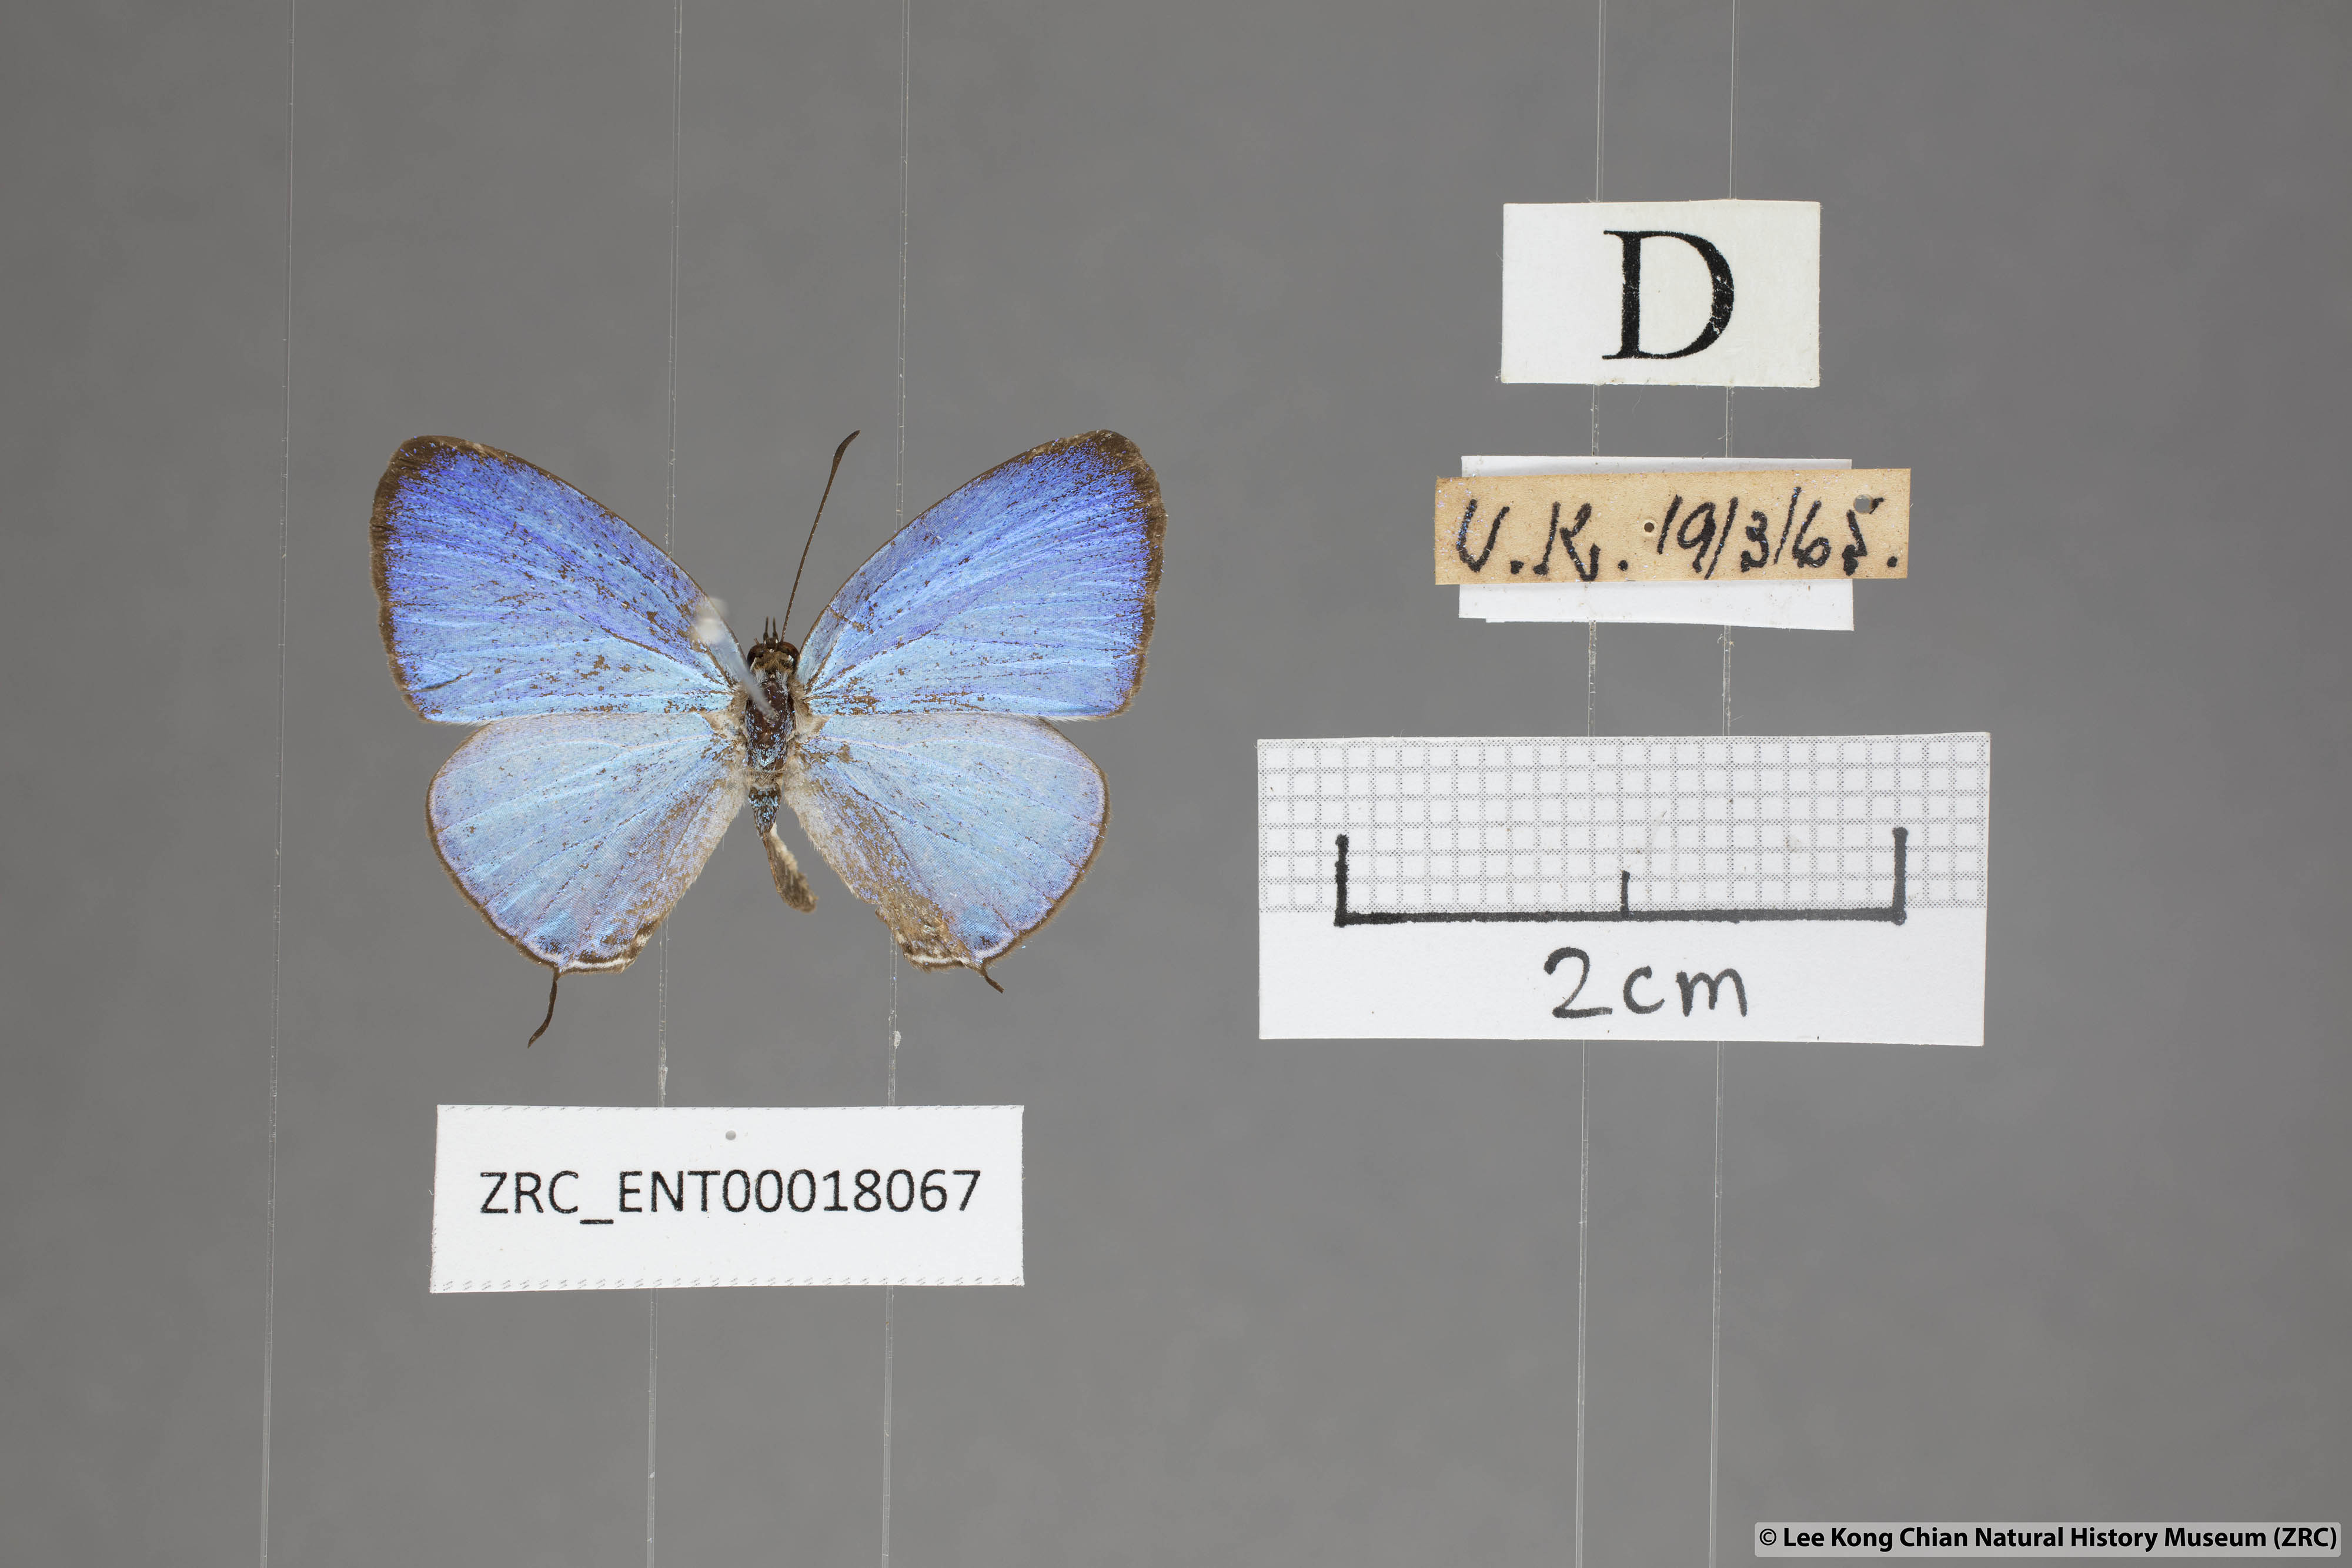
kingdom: Animalia
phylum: Arthropoda
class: Insecta
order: Lepidoptera
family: Lycaenidae
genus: Jamides
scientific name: Jamides caerulea
